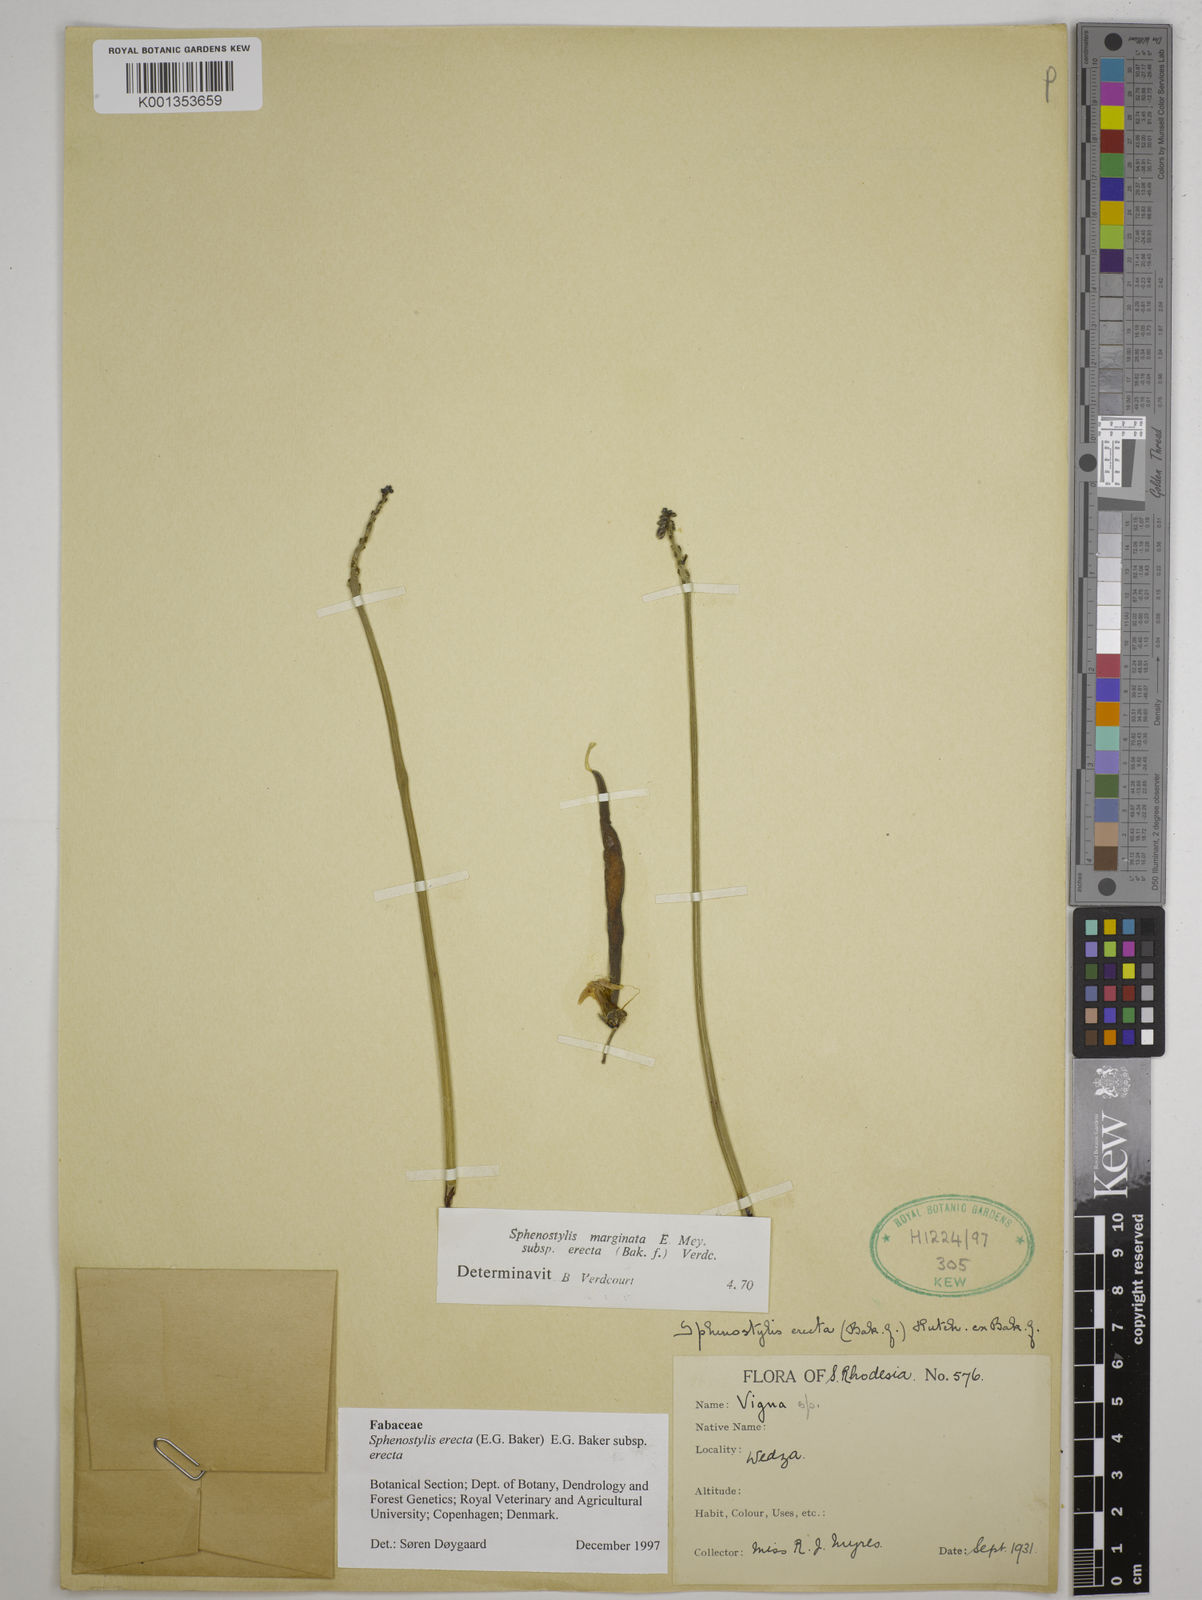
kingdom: Plantae
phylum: Tracheophyta
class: Magnoliopsida
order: Fabales
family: Fabaceae
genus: Sphenostylis
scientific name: Sphenostylis erecta
